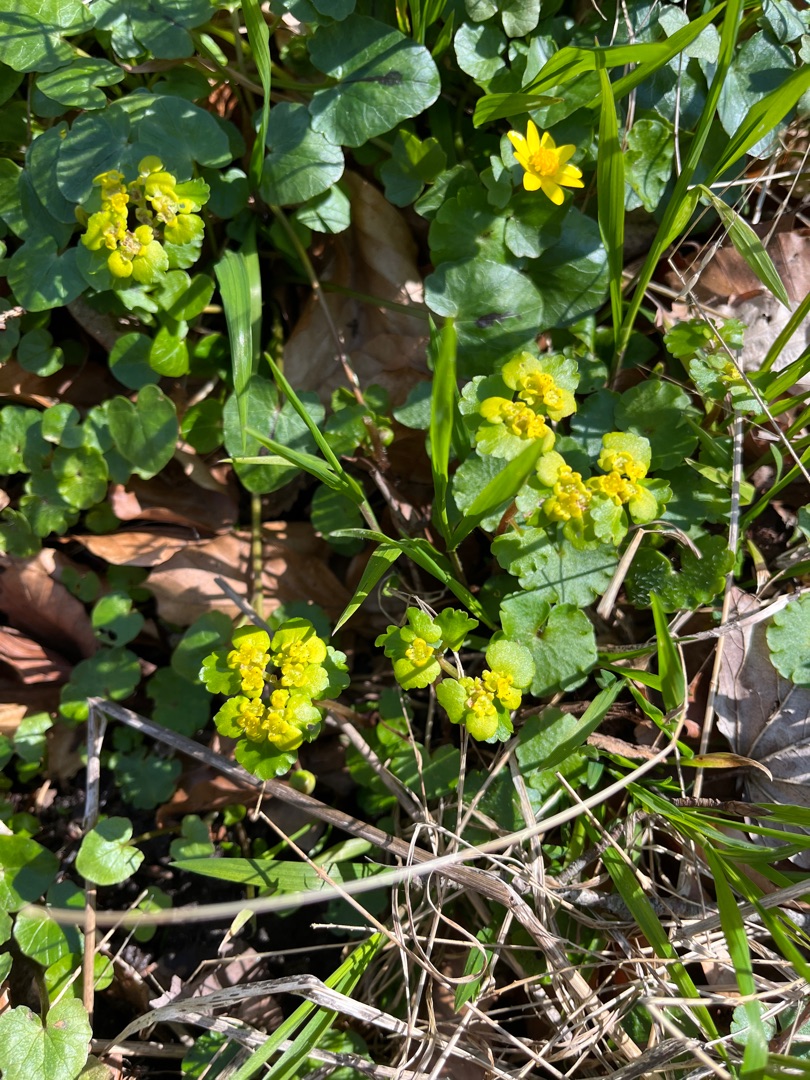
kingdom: Plantae
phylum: Tracheophyta
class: Magnoliopsida
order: Saxifragales
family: Saxifragaceae
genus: Chrysosplenium
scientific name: Chrysosplenium alternifolium
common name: Almindelig milturt
